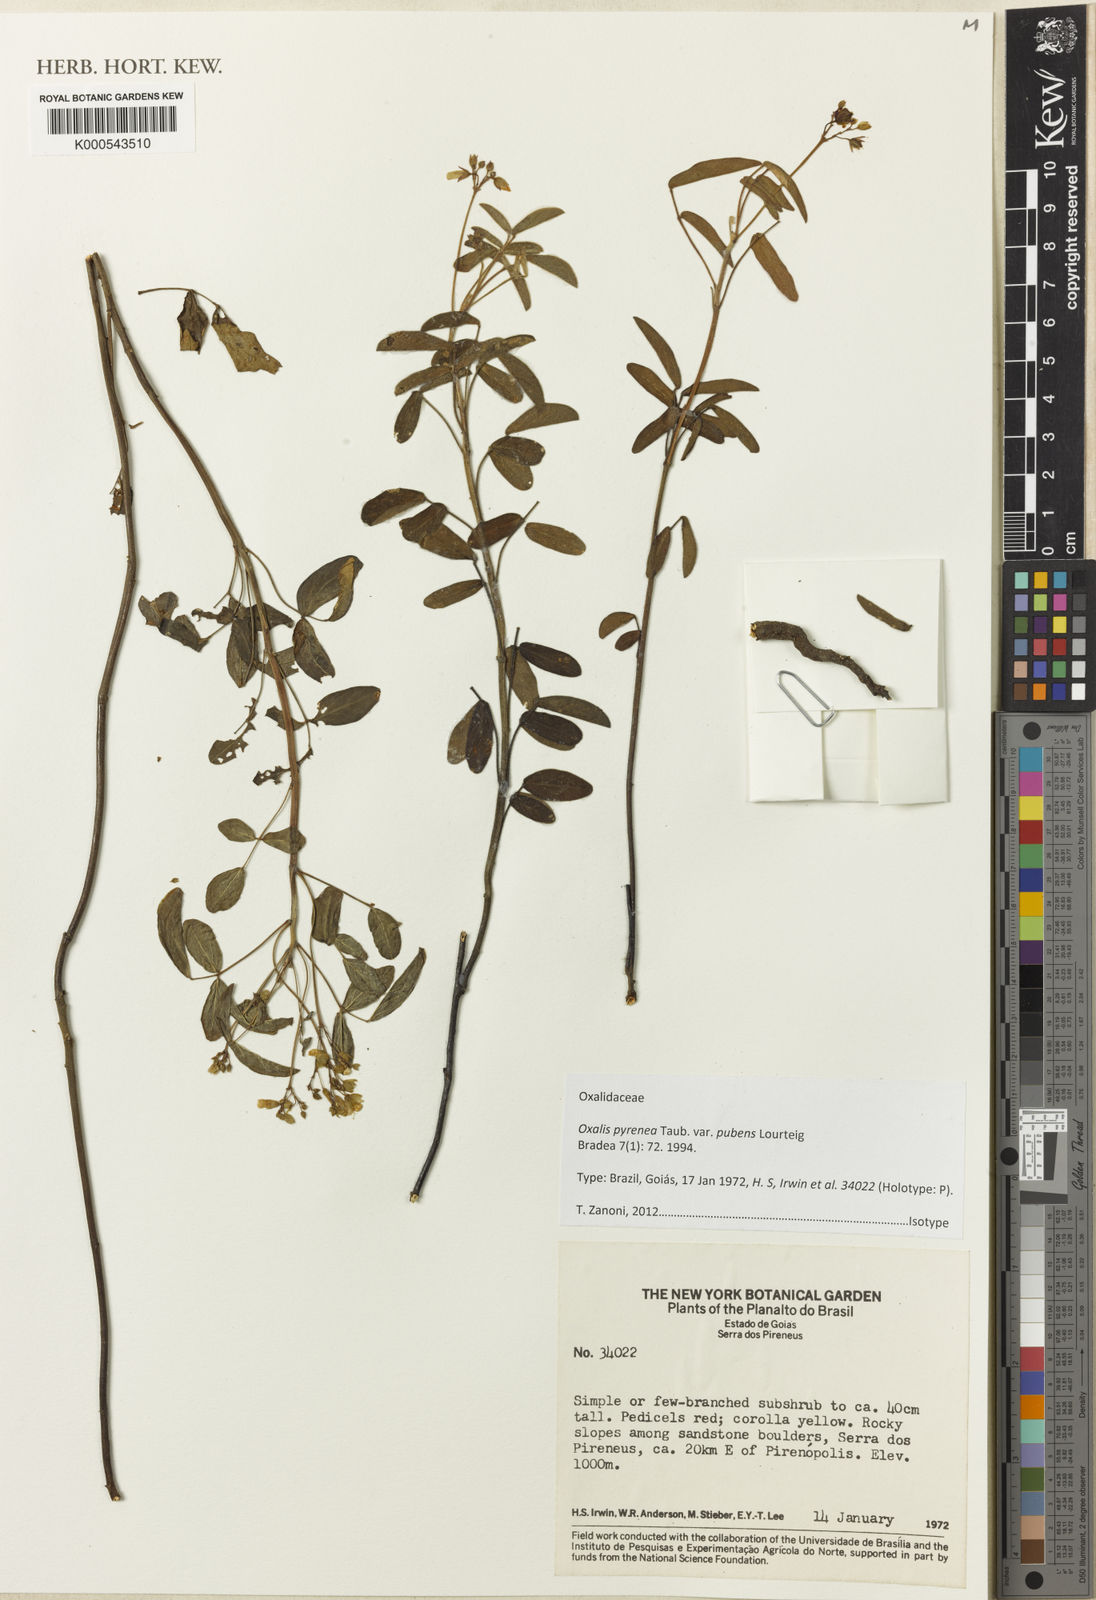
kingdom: Plantae
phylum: Tracheophyta
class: Magnoliopsida
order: Oxalidales
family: Oxalidaceae
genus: Oxalis
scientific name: Oxalis pyrenea
